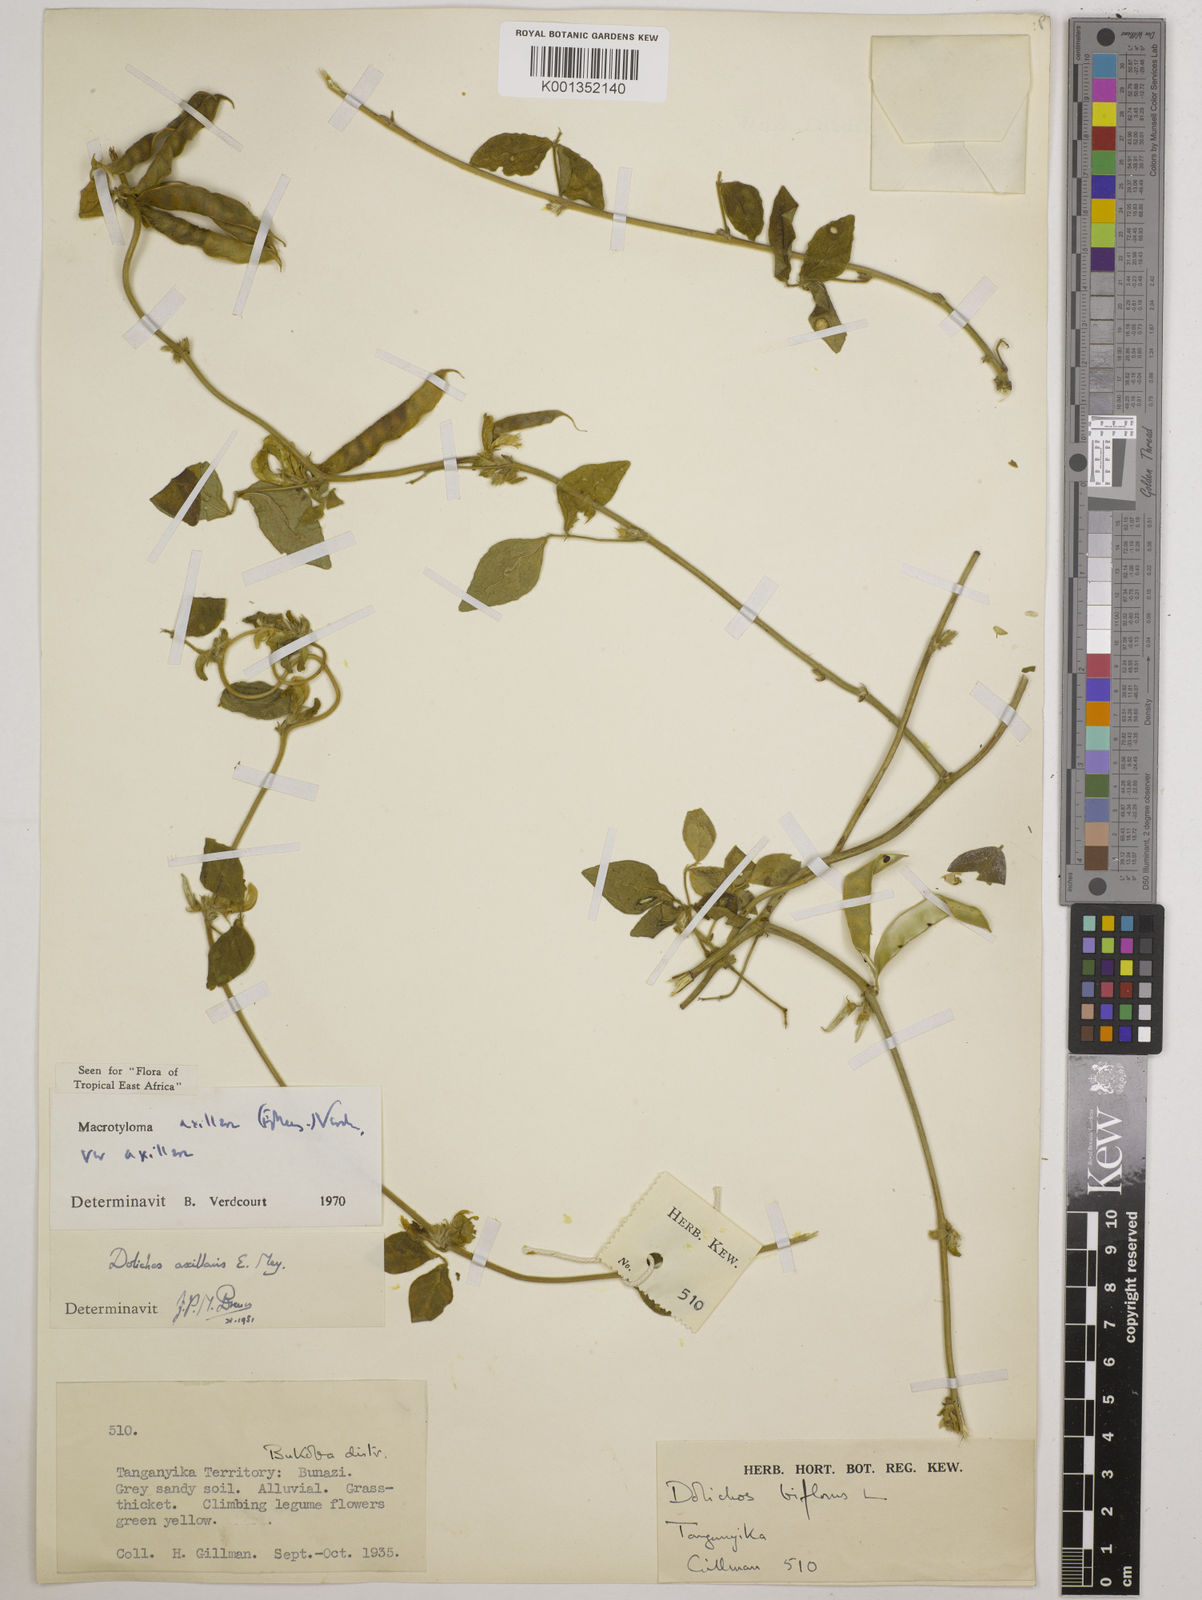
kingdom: Plantae
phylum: Tracheophyta
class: Magnoliopsida
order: Fabales
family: Fabaceae
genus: Macrotyloma
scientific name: Macrotyloma axillare
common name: Perennial horsegram
